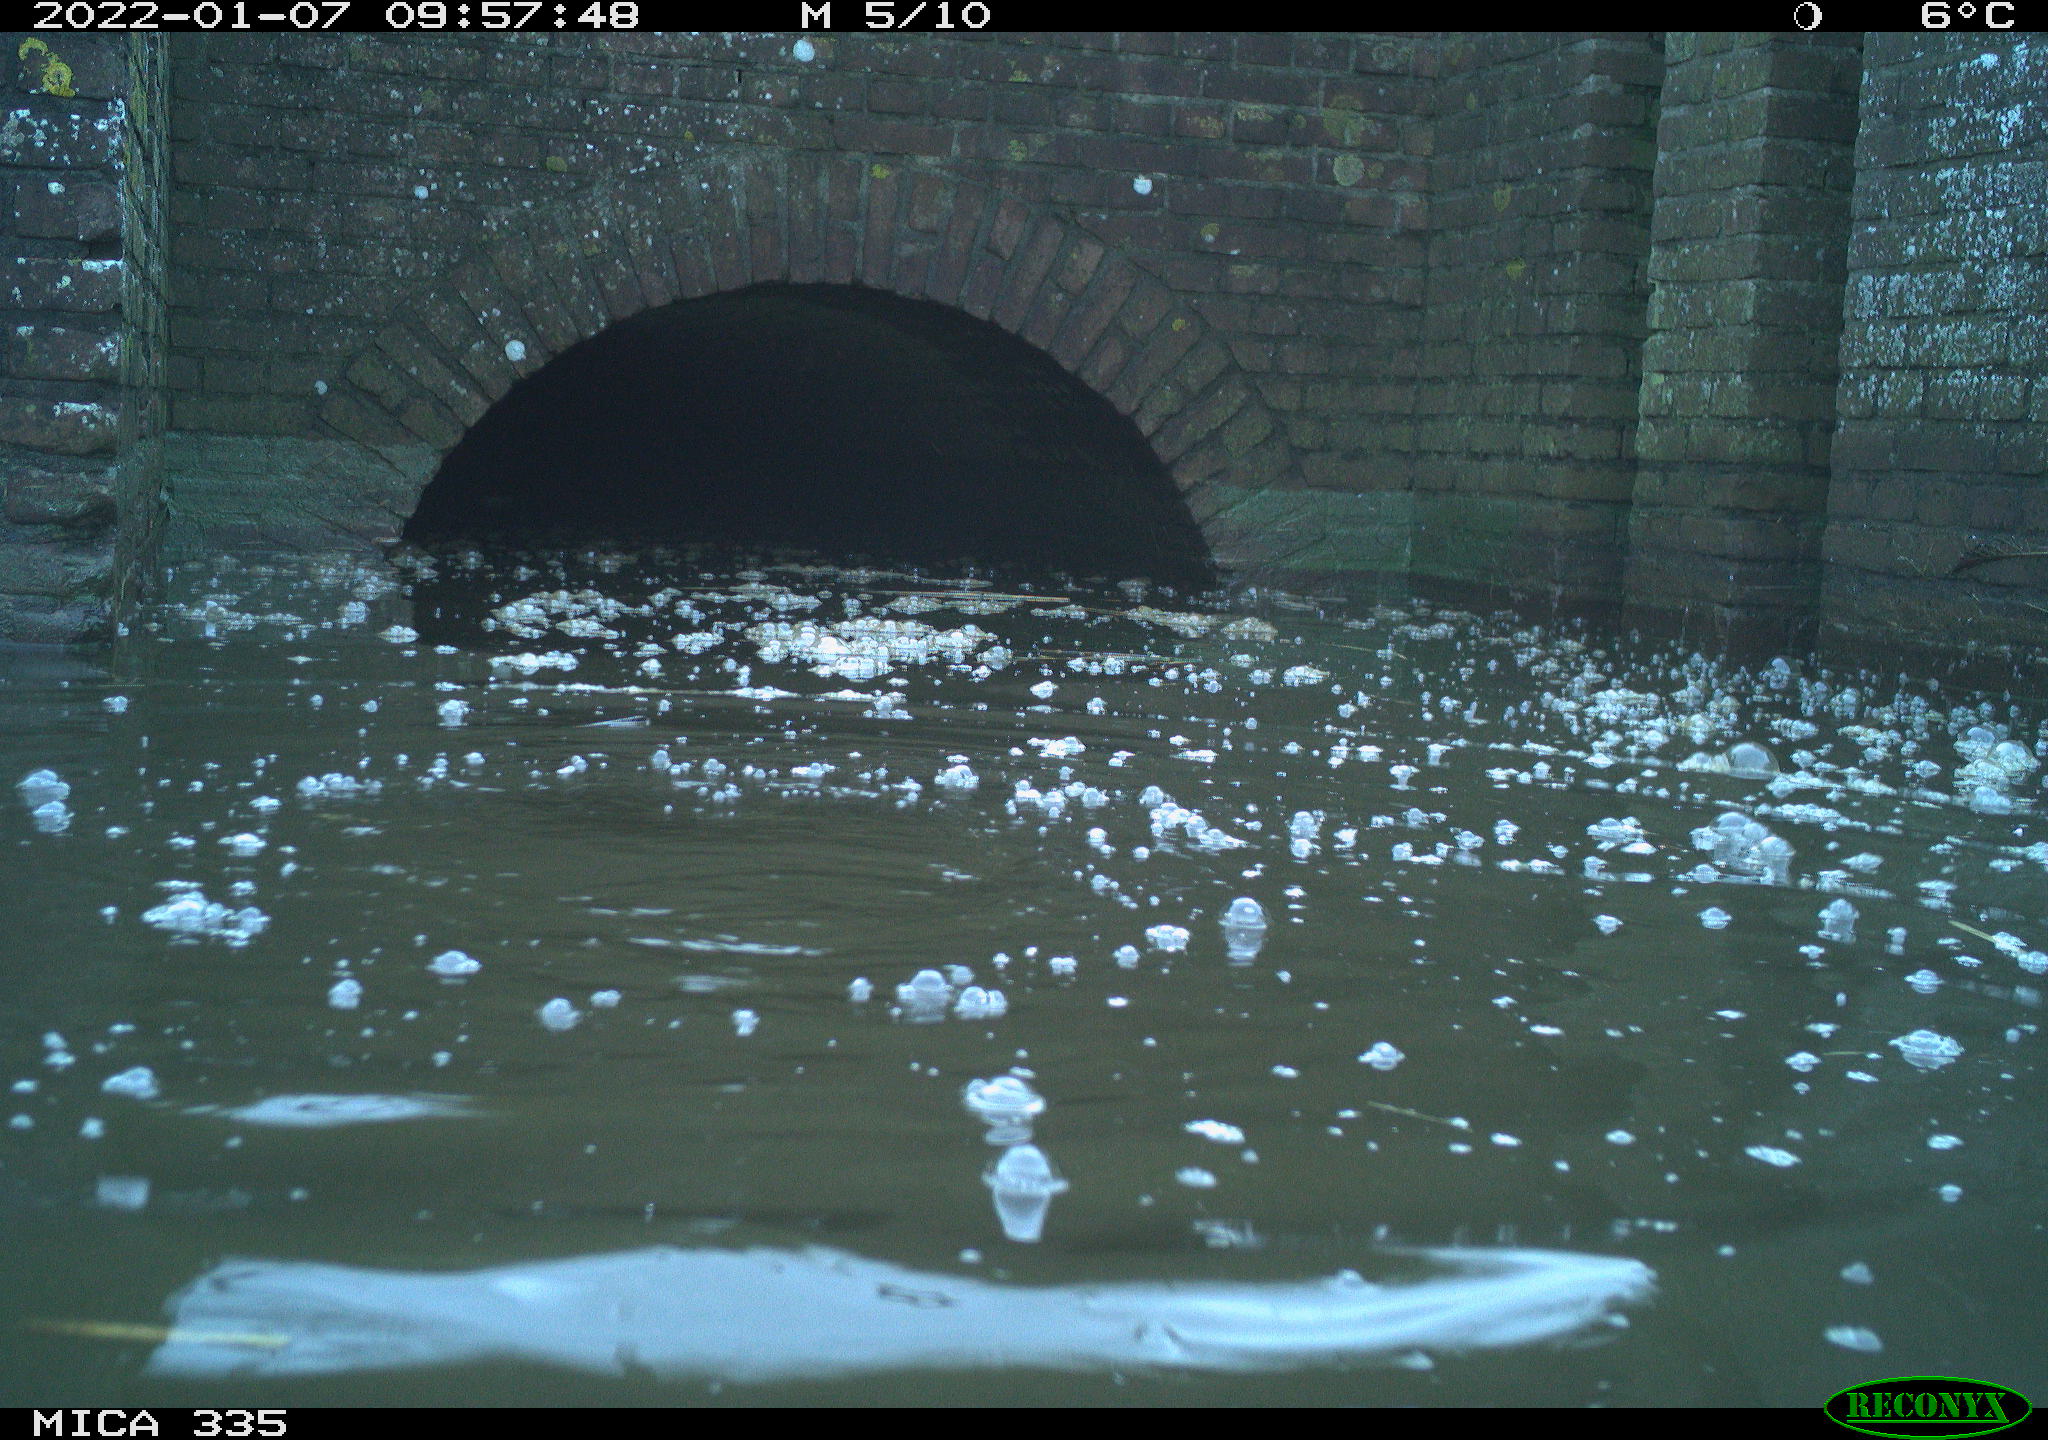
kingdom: Animalia
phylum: Chordata
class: Aves
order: Suliformes
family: Phalacrocoracidae
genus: Phalacrocorax
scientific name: Phalacrocorax carbo
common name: Great cormorant
